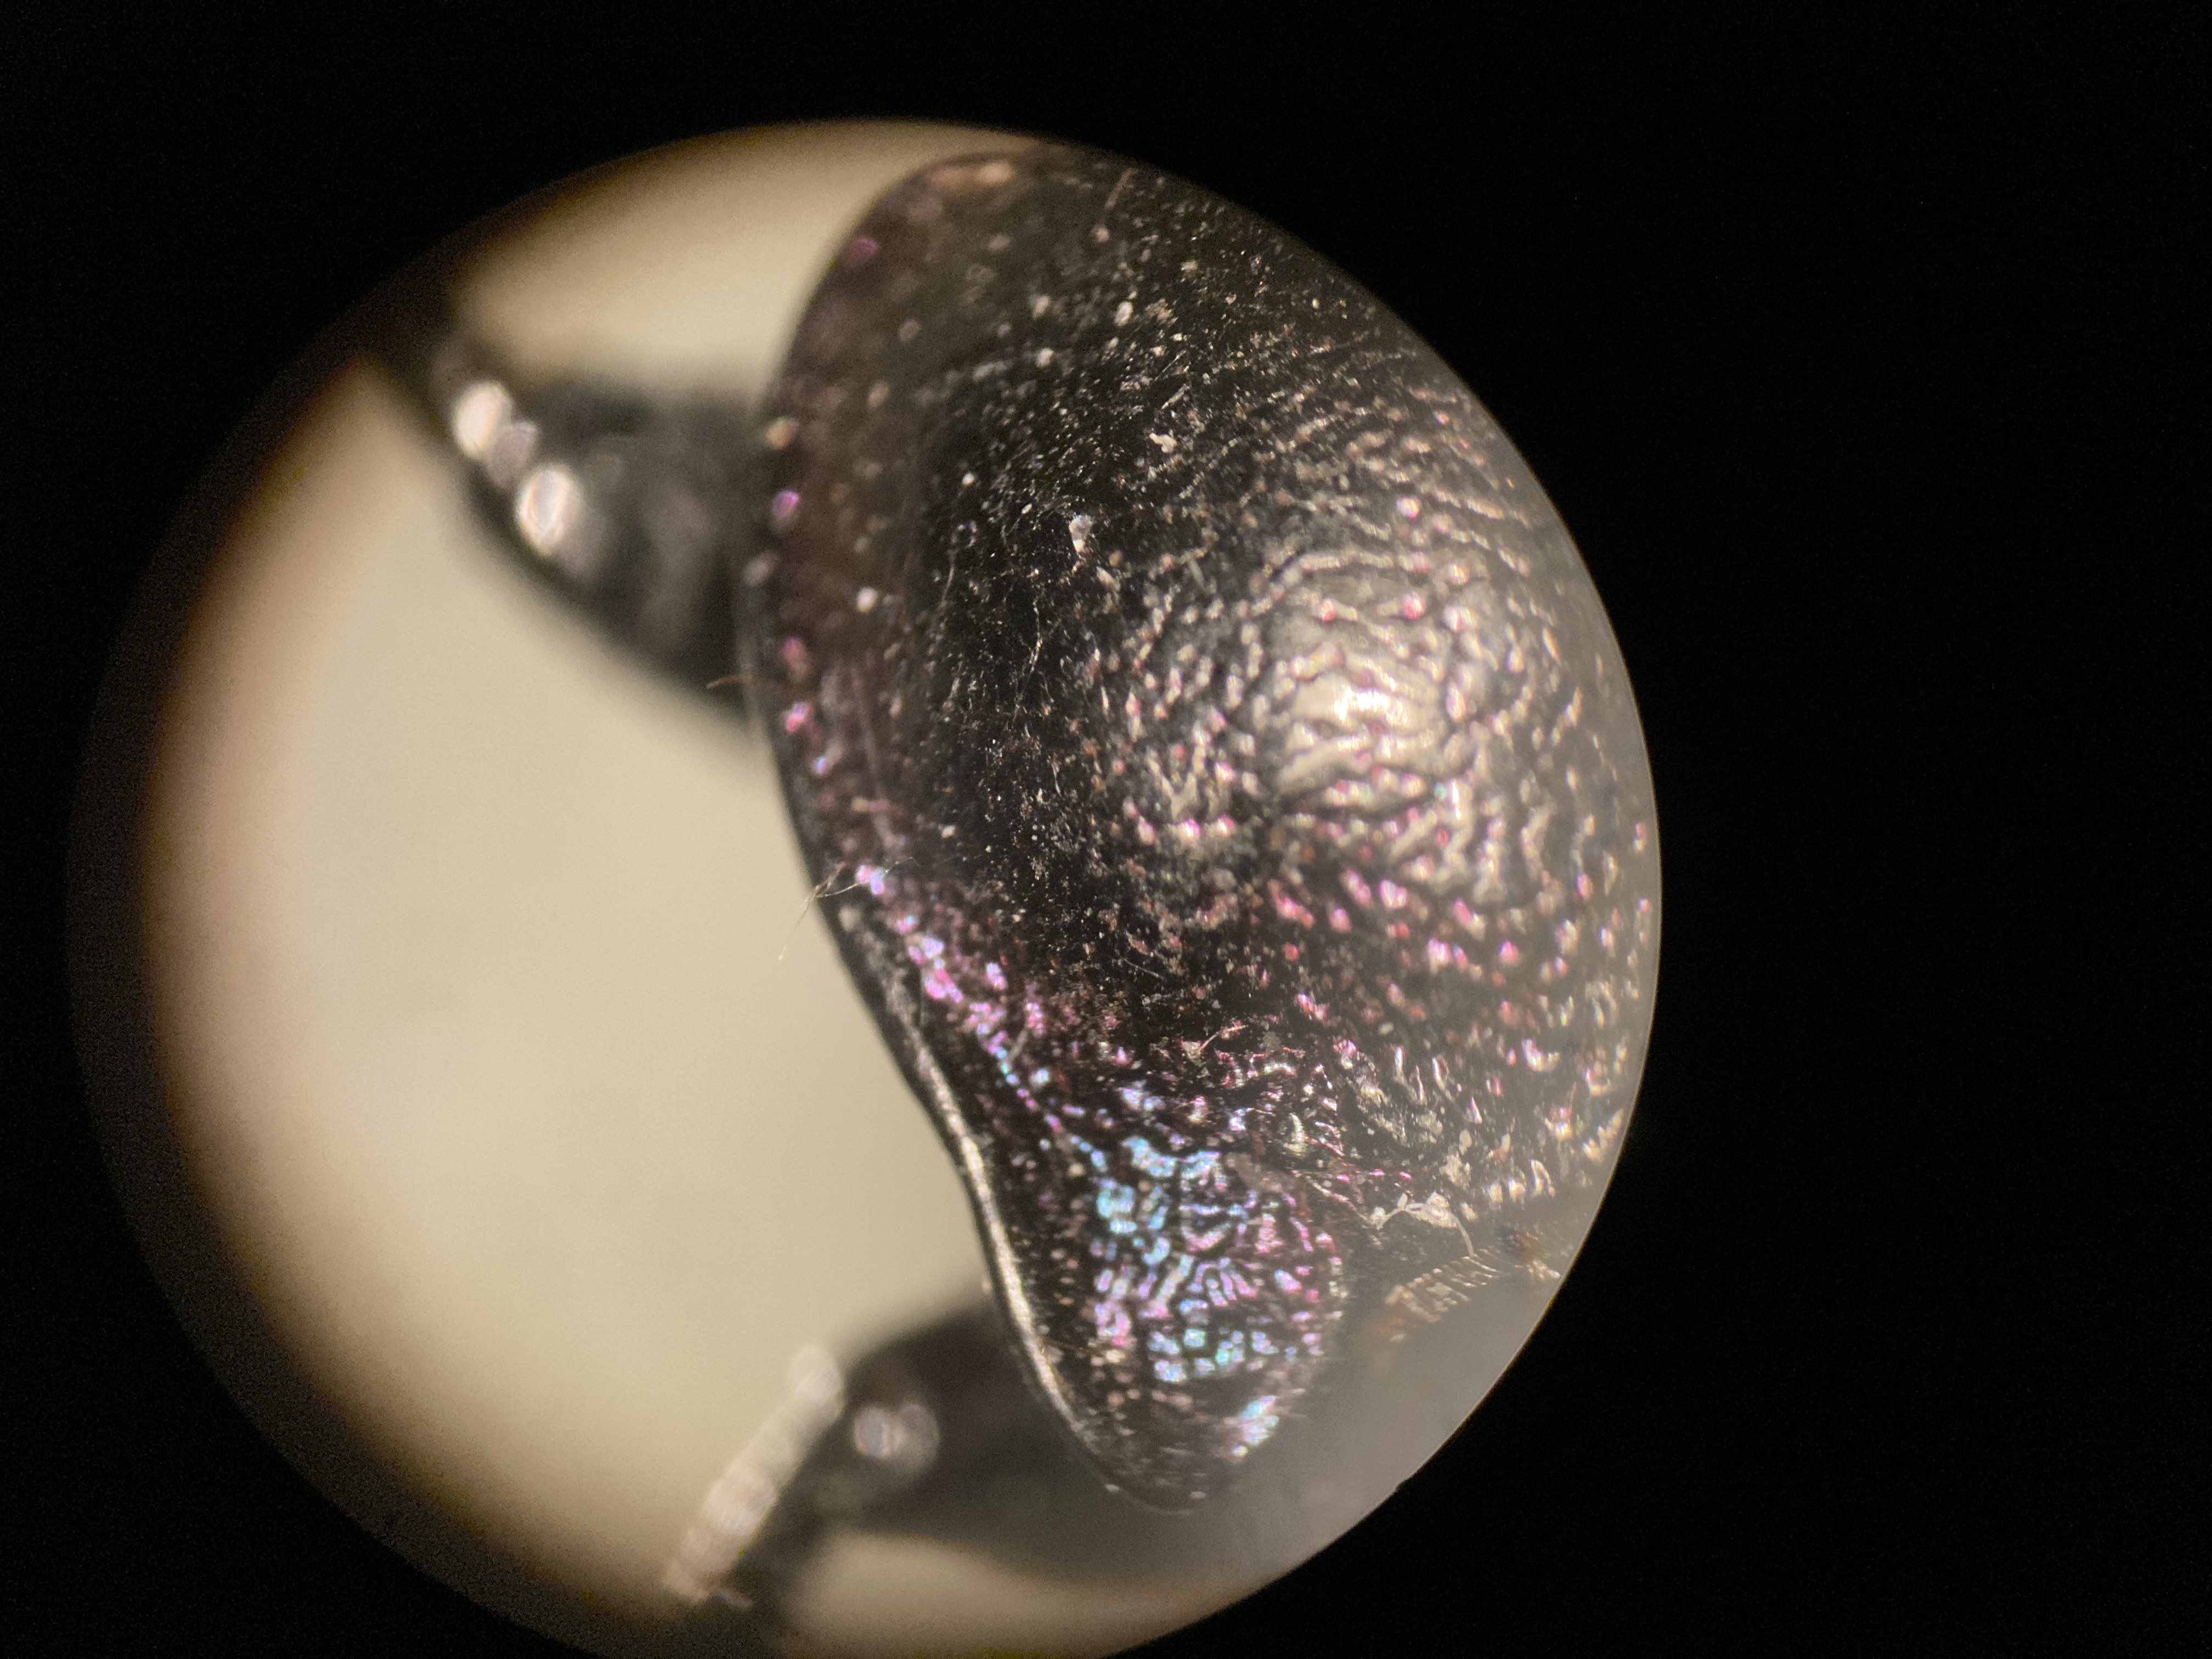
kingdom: Animalia
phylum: Arthropoda
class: Insecta
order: Coleoptera
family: Carabidae
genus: Carabus
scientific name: Carabus nemoralis
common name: Kratløber
